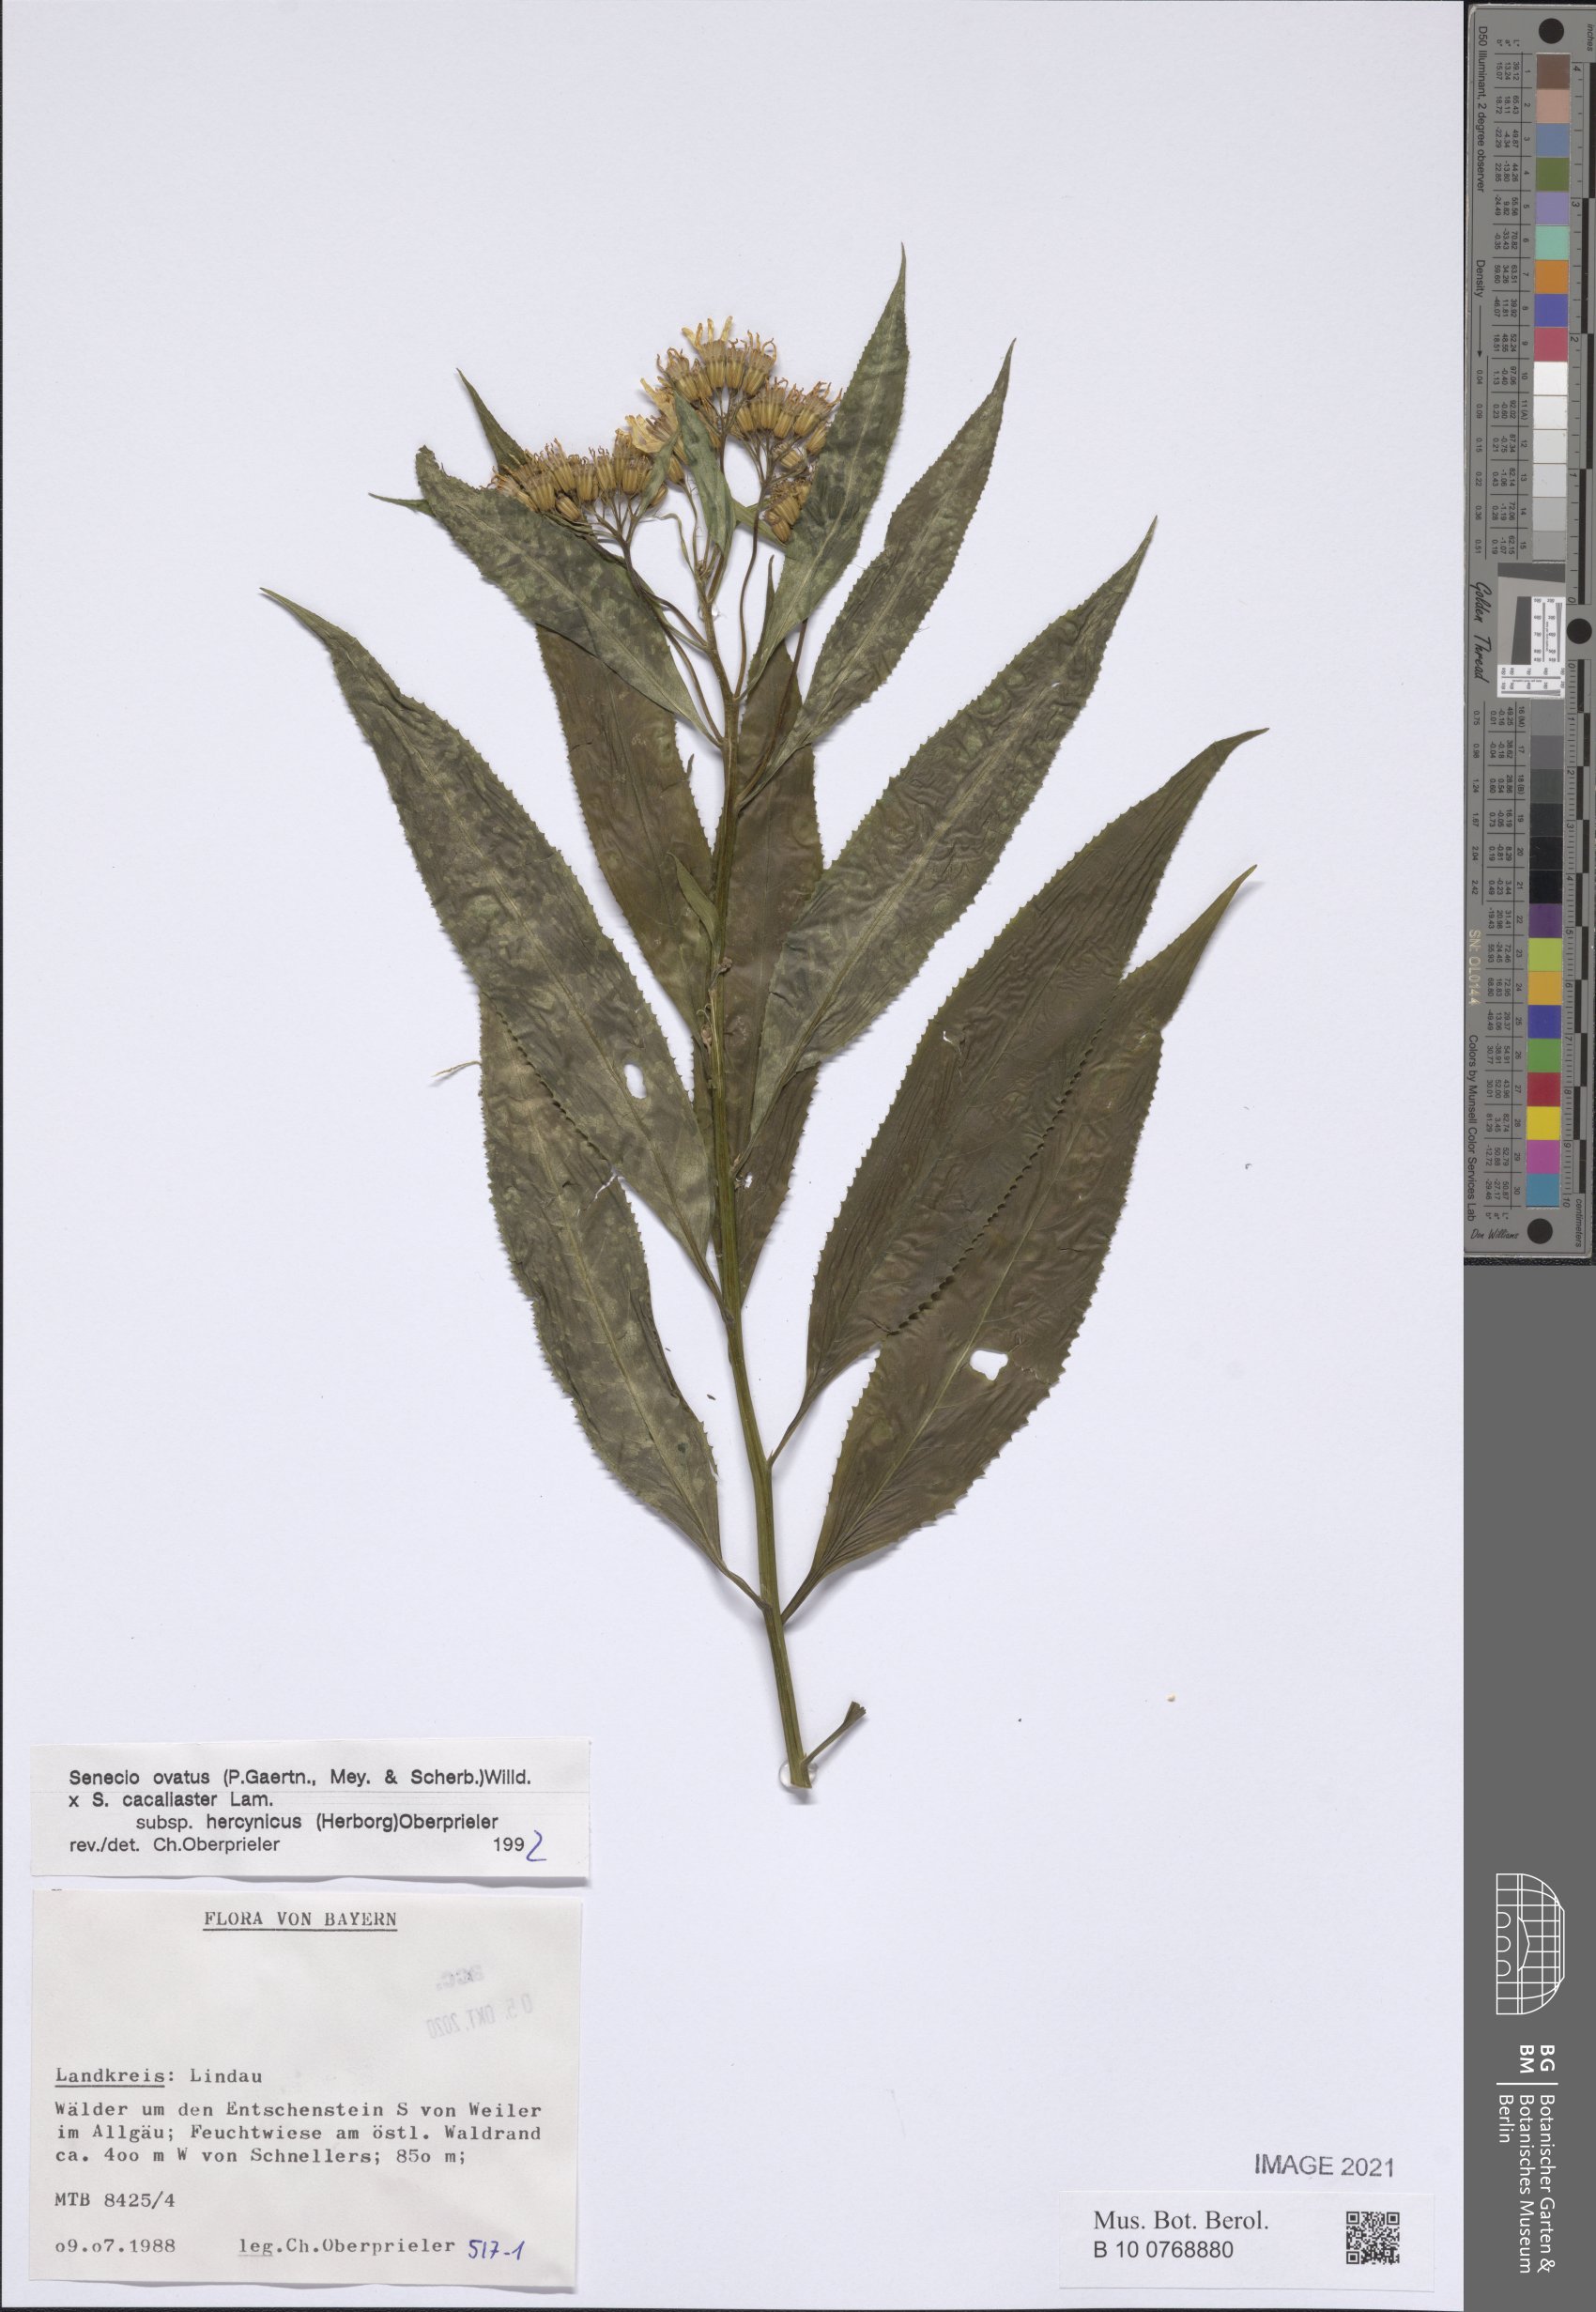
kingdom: Plantae
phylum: Tracheophyta
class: Magnoliopsida
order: Asterales
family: Asteraceae
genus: Senecio
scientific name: Senecio ovatus
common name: Wood ragwort
